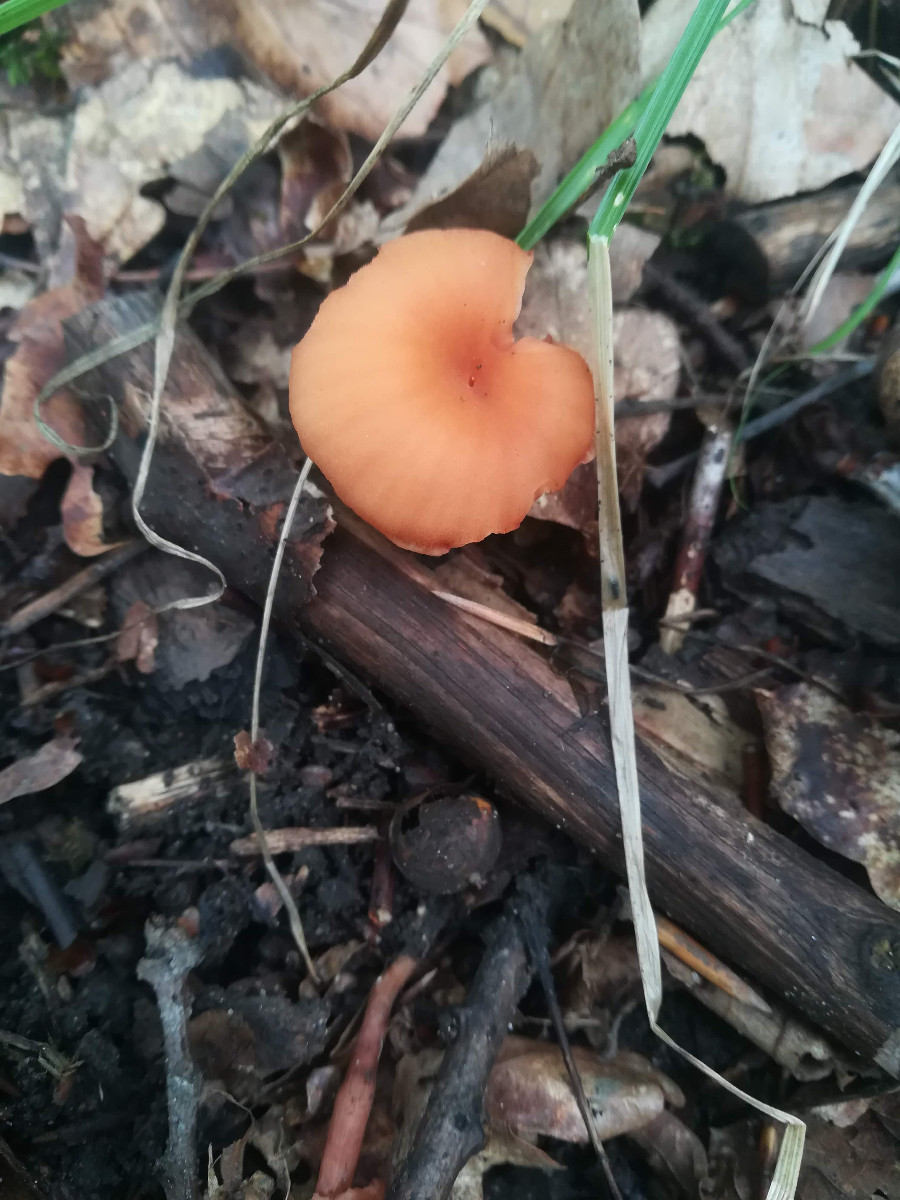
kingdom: Fungi
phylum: Basidiomycota
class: Agaricomycetes
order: Agaricales
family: Hydnangiaceae
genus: Laccaria
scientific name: Laccaria laccata
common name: rød ametysthat
